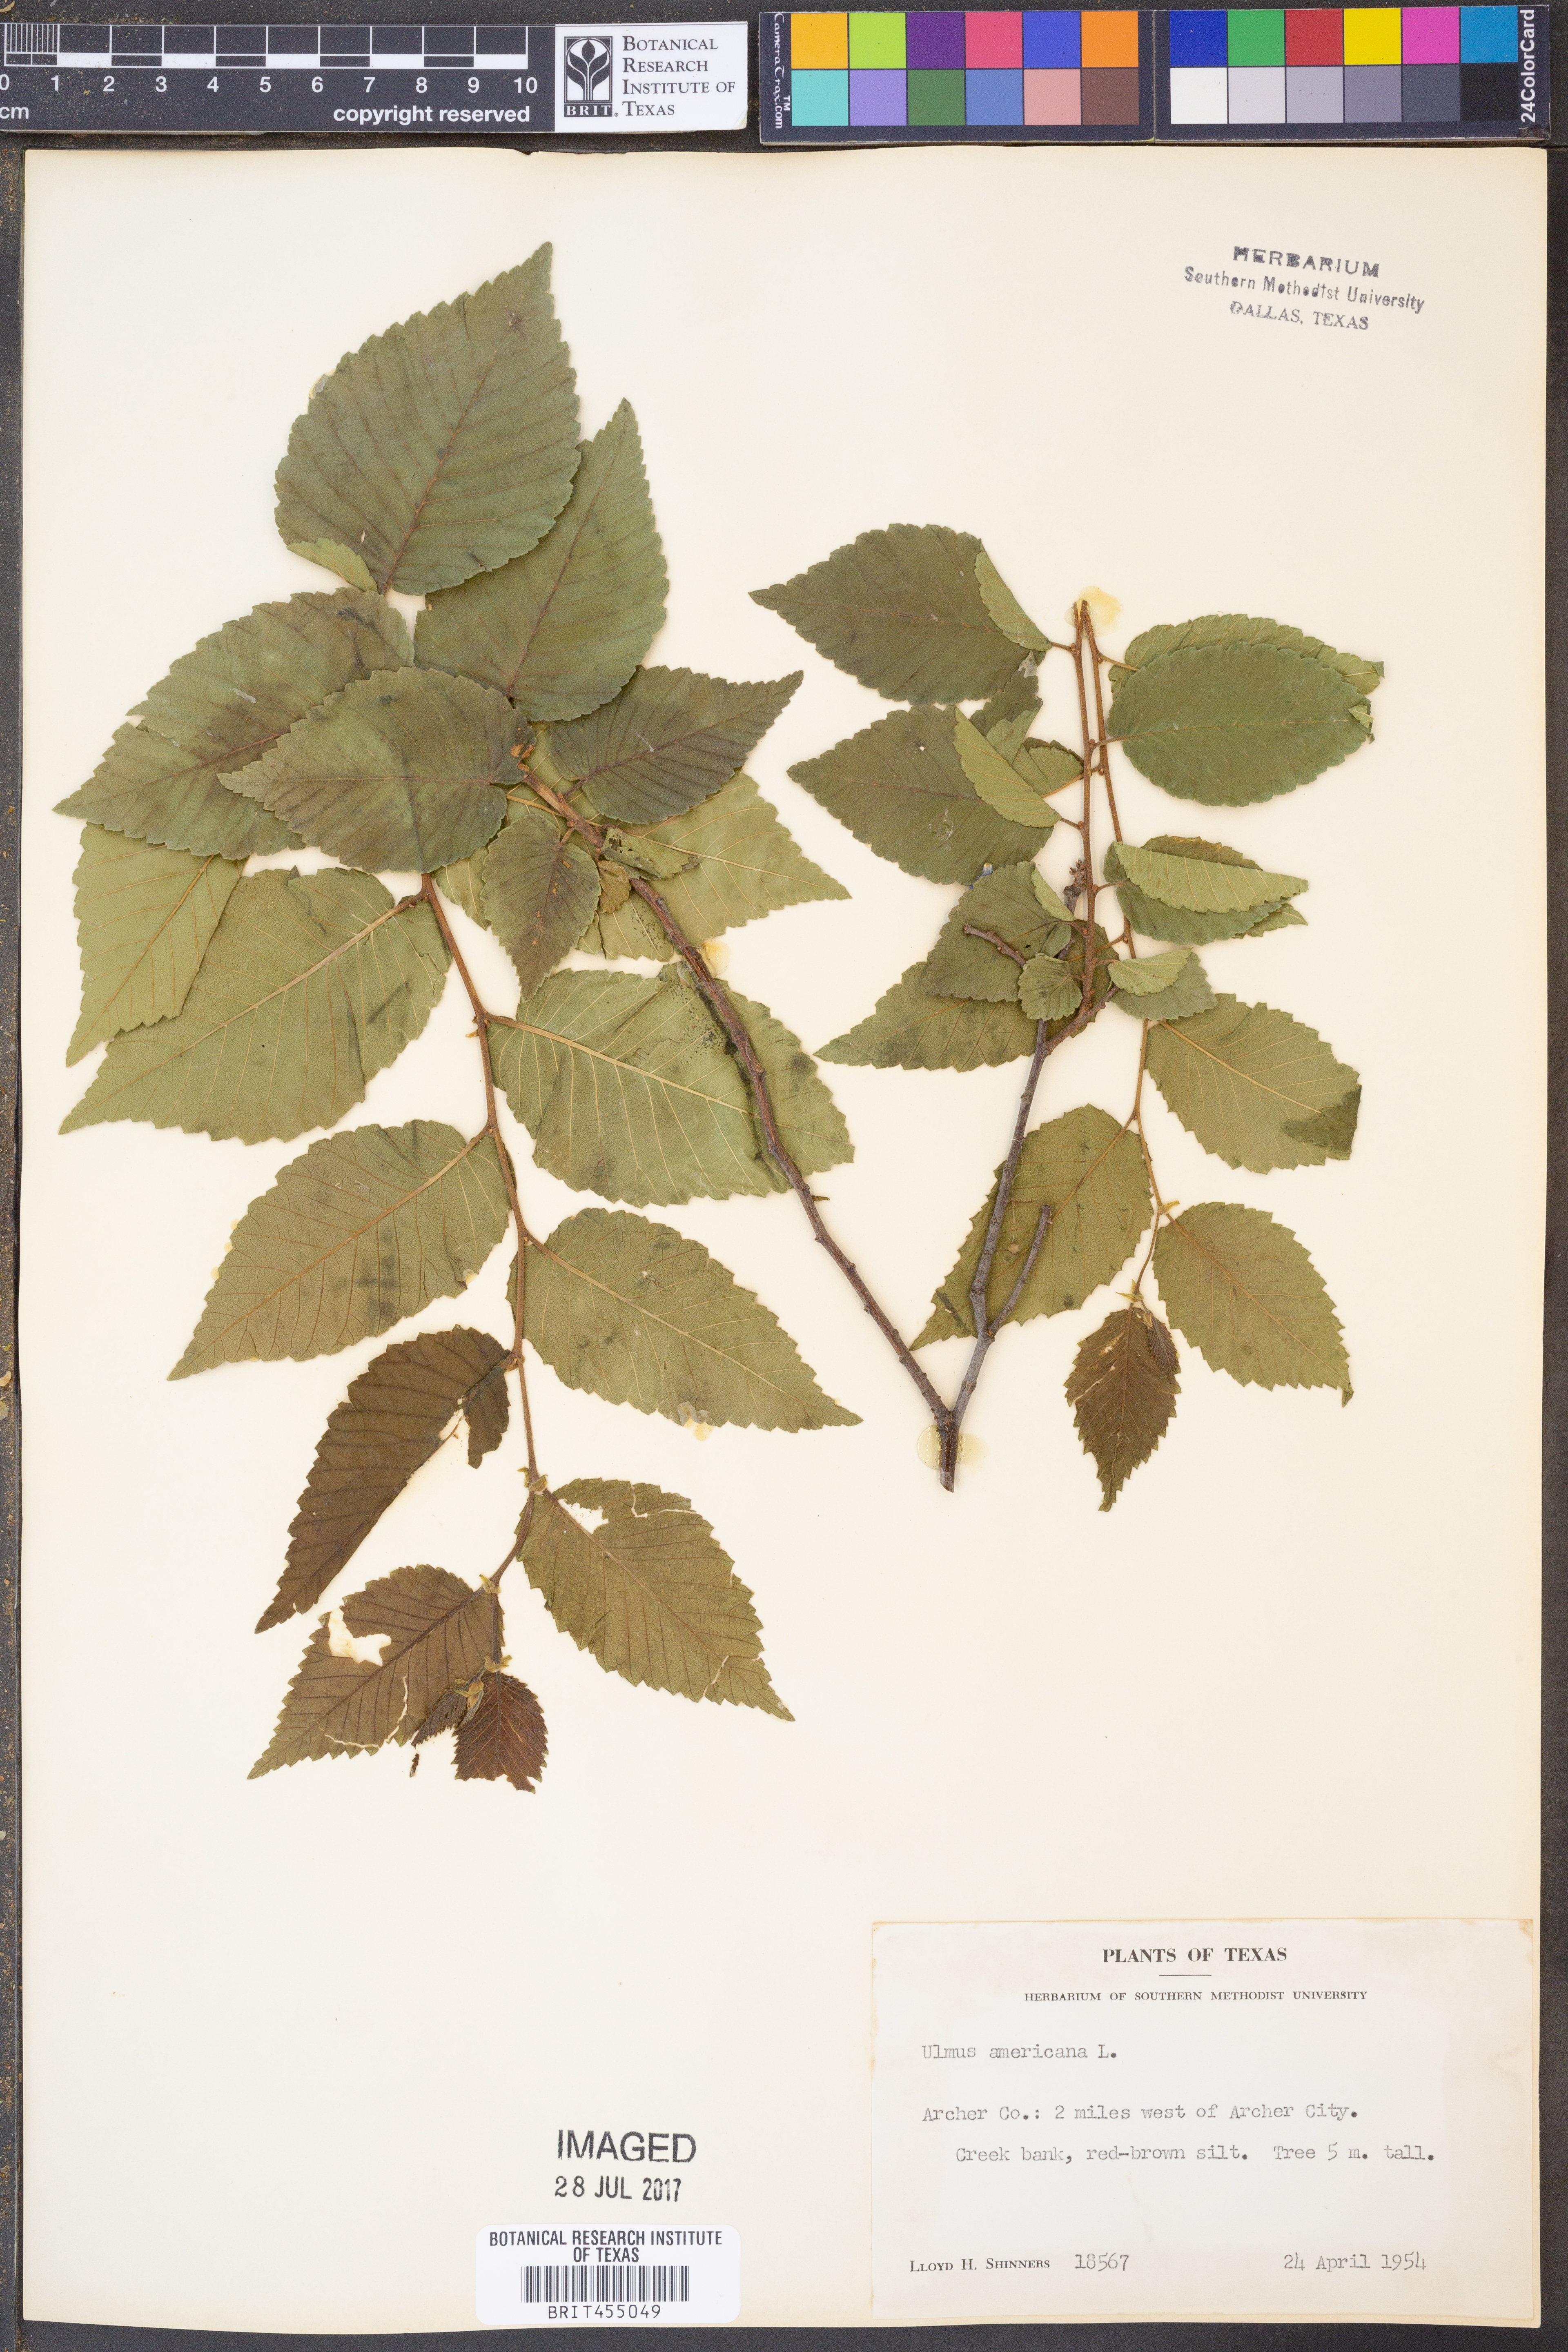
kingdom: Plantae
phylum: Tracheophyta
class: Magnoliopsida
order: Rosales
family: Ulmaceae
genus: Ulmus
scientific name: Ulmus americana
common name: American elm
